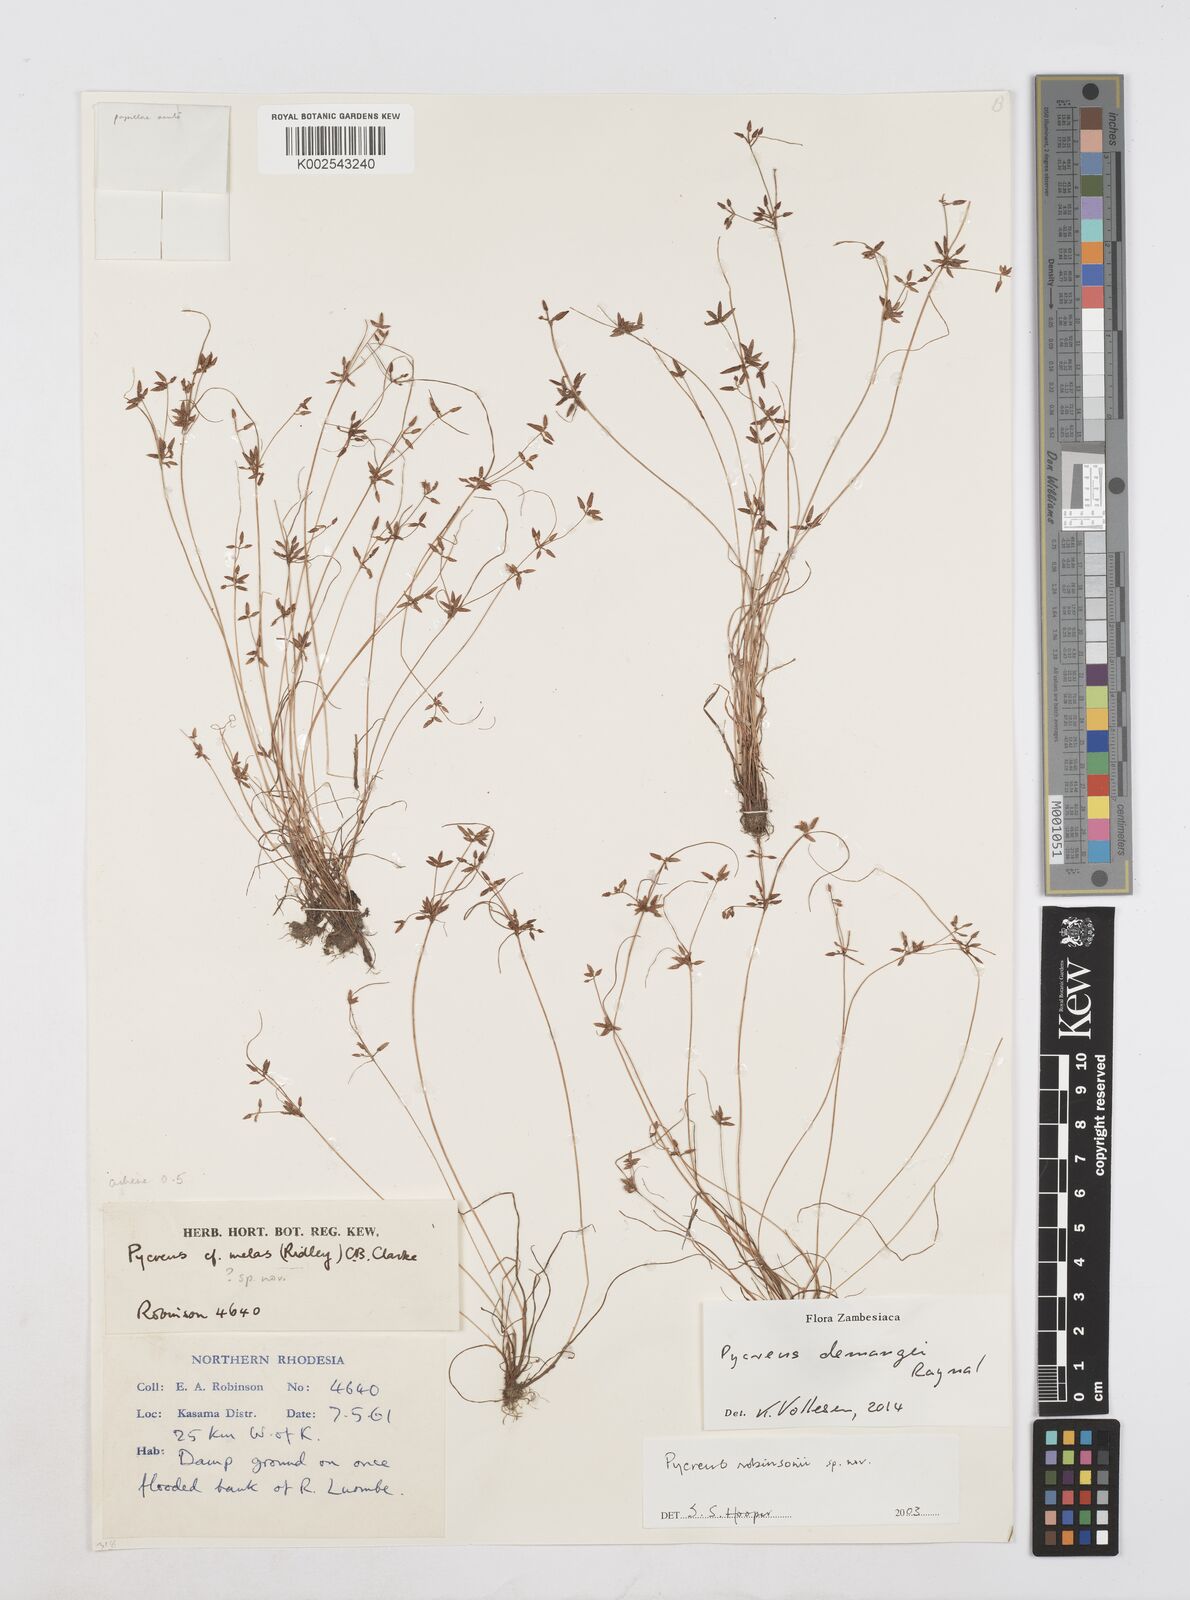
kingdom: Plantae
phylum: Tracheophyta
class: Liliopsida
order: Poales
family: Cyperaceae
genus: Cyperus
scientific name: Cyperus demangei
